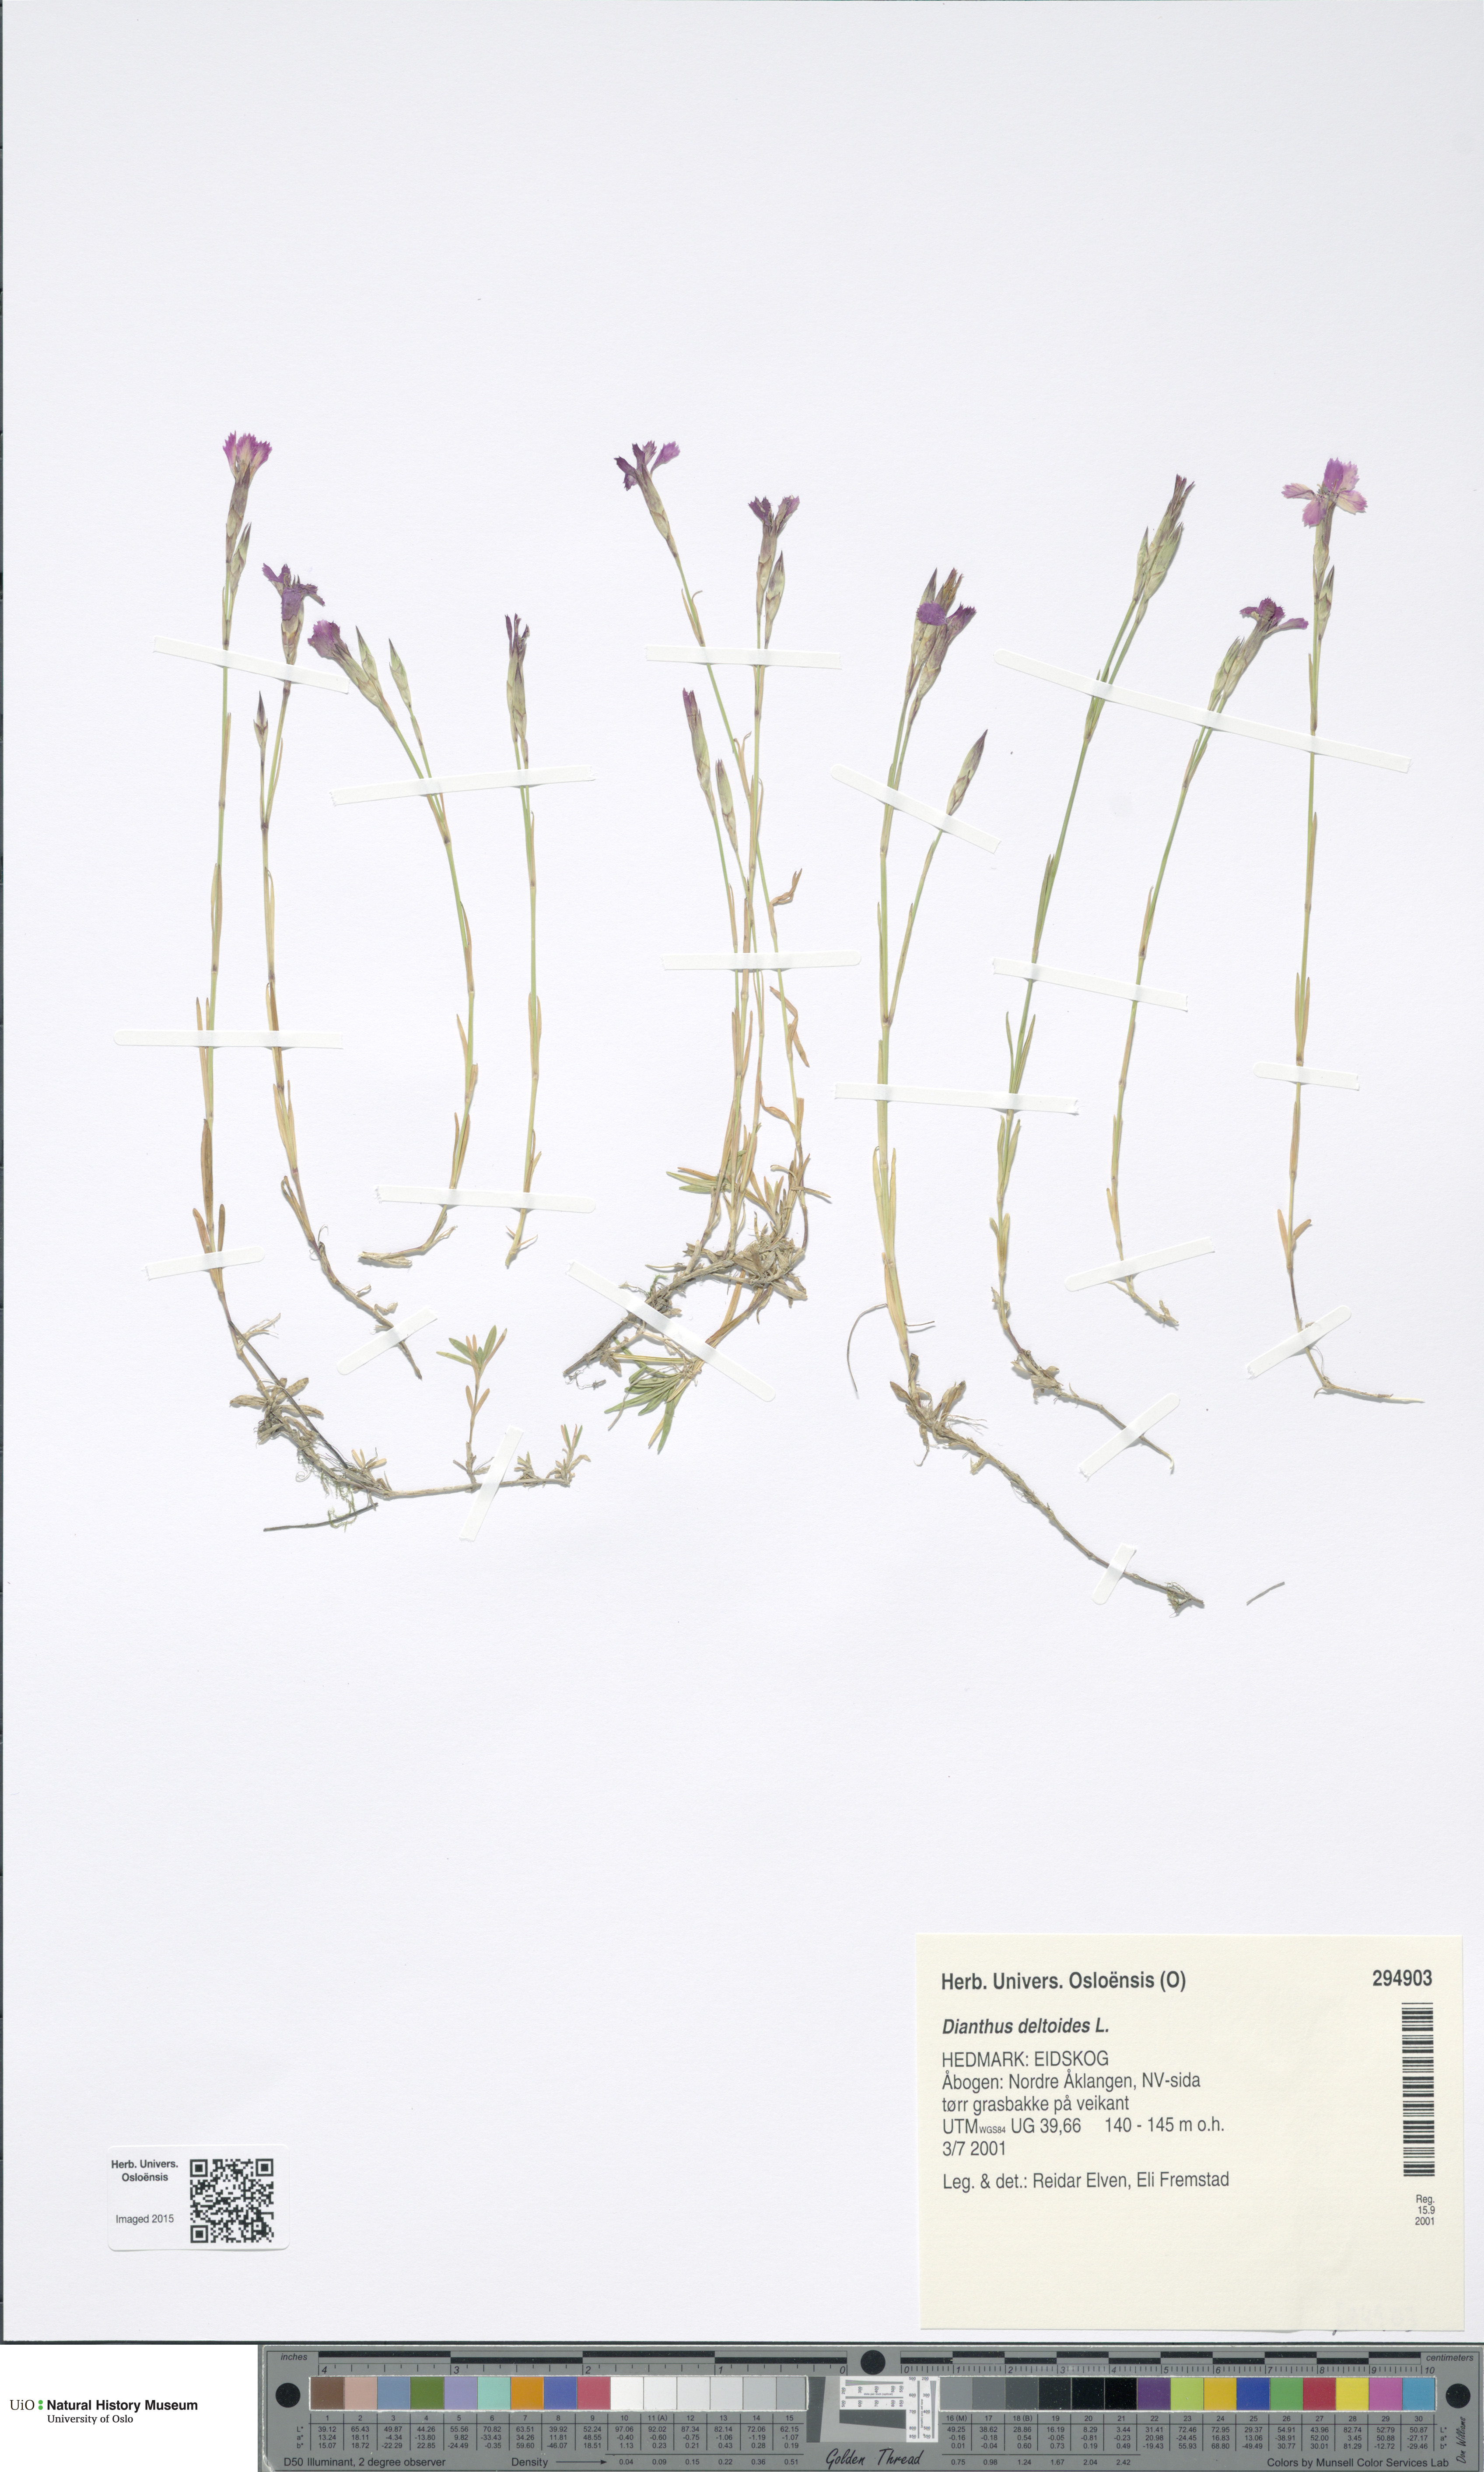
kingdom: Plantae
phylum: Tracheophyta
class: Magnoliopsida
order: Caryophyllales
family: Caryophyllaceae
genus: Dianthus
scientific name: Dianthus deltoides
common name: Maiden pink
